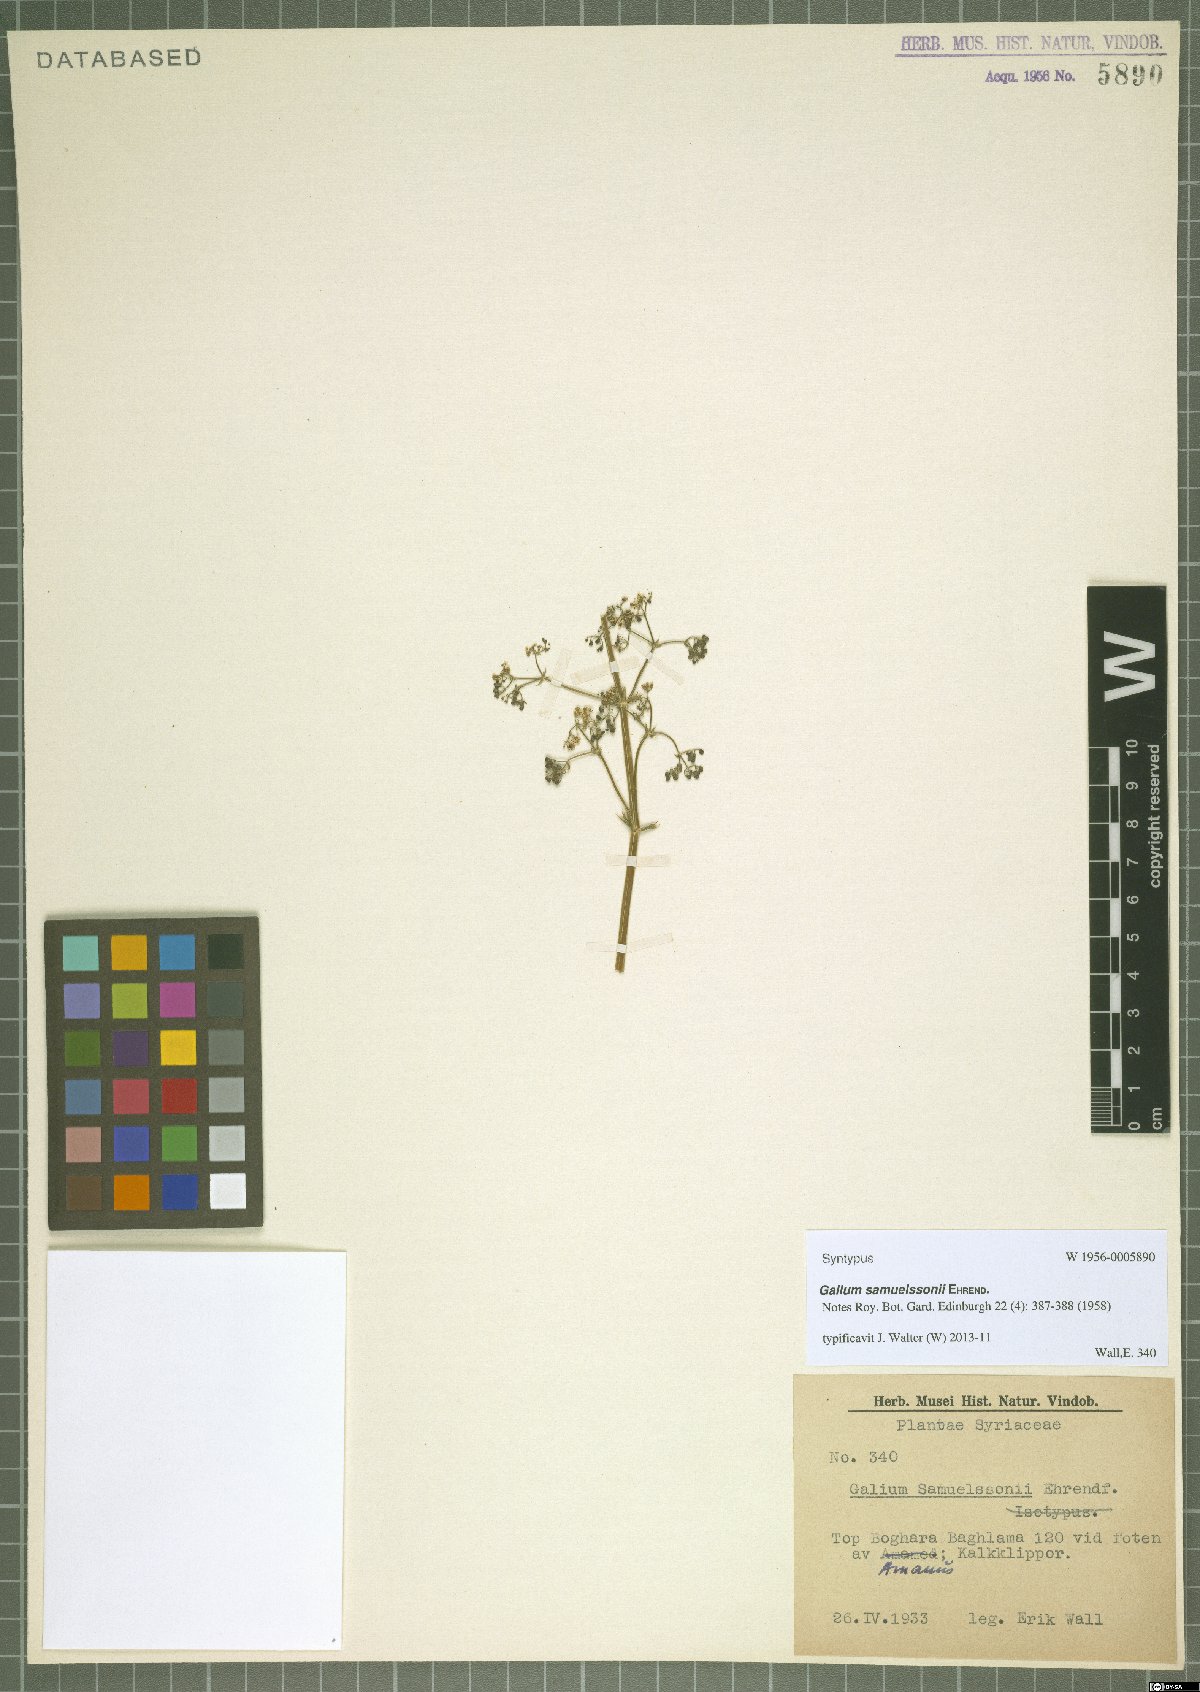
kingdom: Plantae
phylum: Tracheophyta
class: Magnoliopsida
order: Gentianales
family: Rubiaceae
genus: Galium
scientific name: Galium samuelssonii
